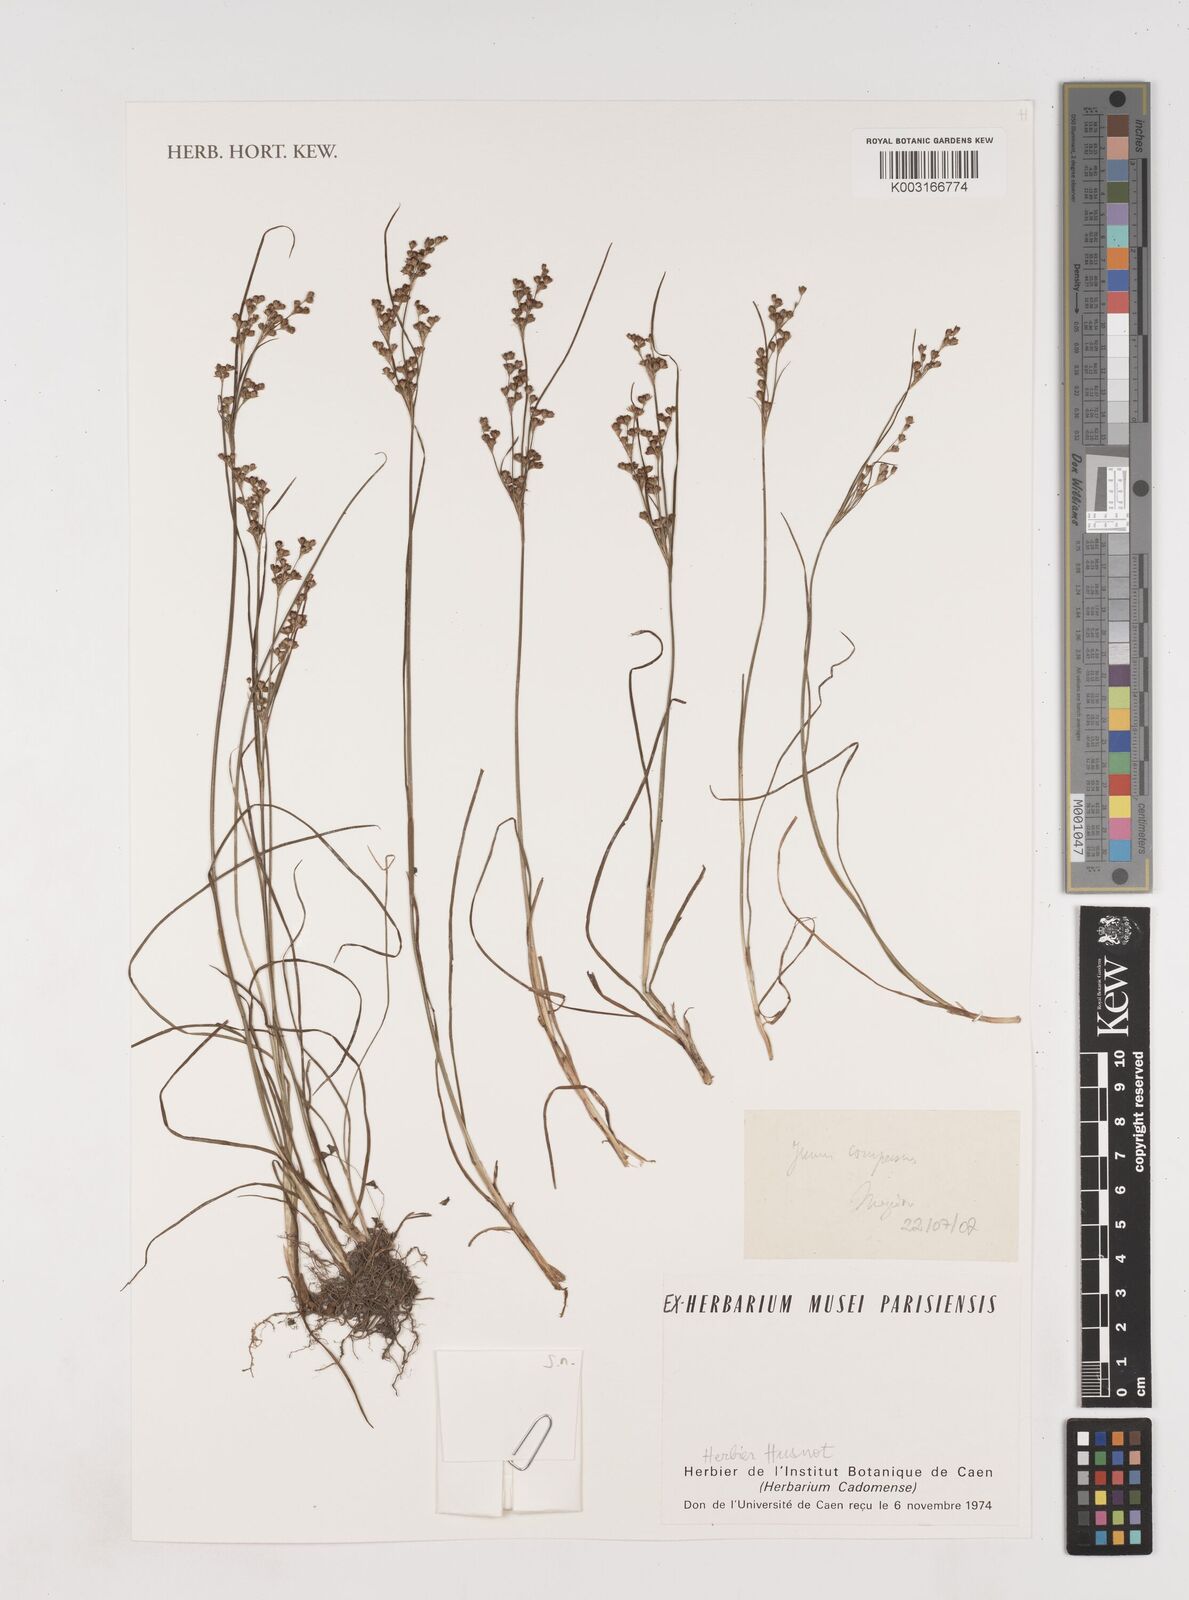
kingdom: Plantae
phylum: Tracheophyta
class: Liliopsida
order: Poales
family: Juncaceae
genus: Juncus
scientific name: Juncus compressus
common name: Round-fruited rush
